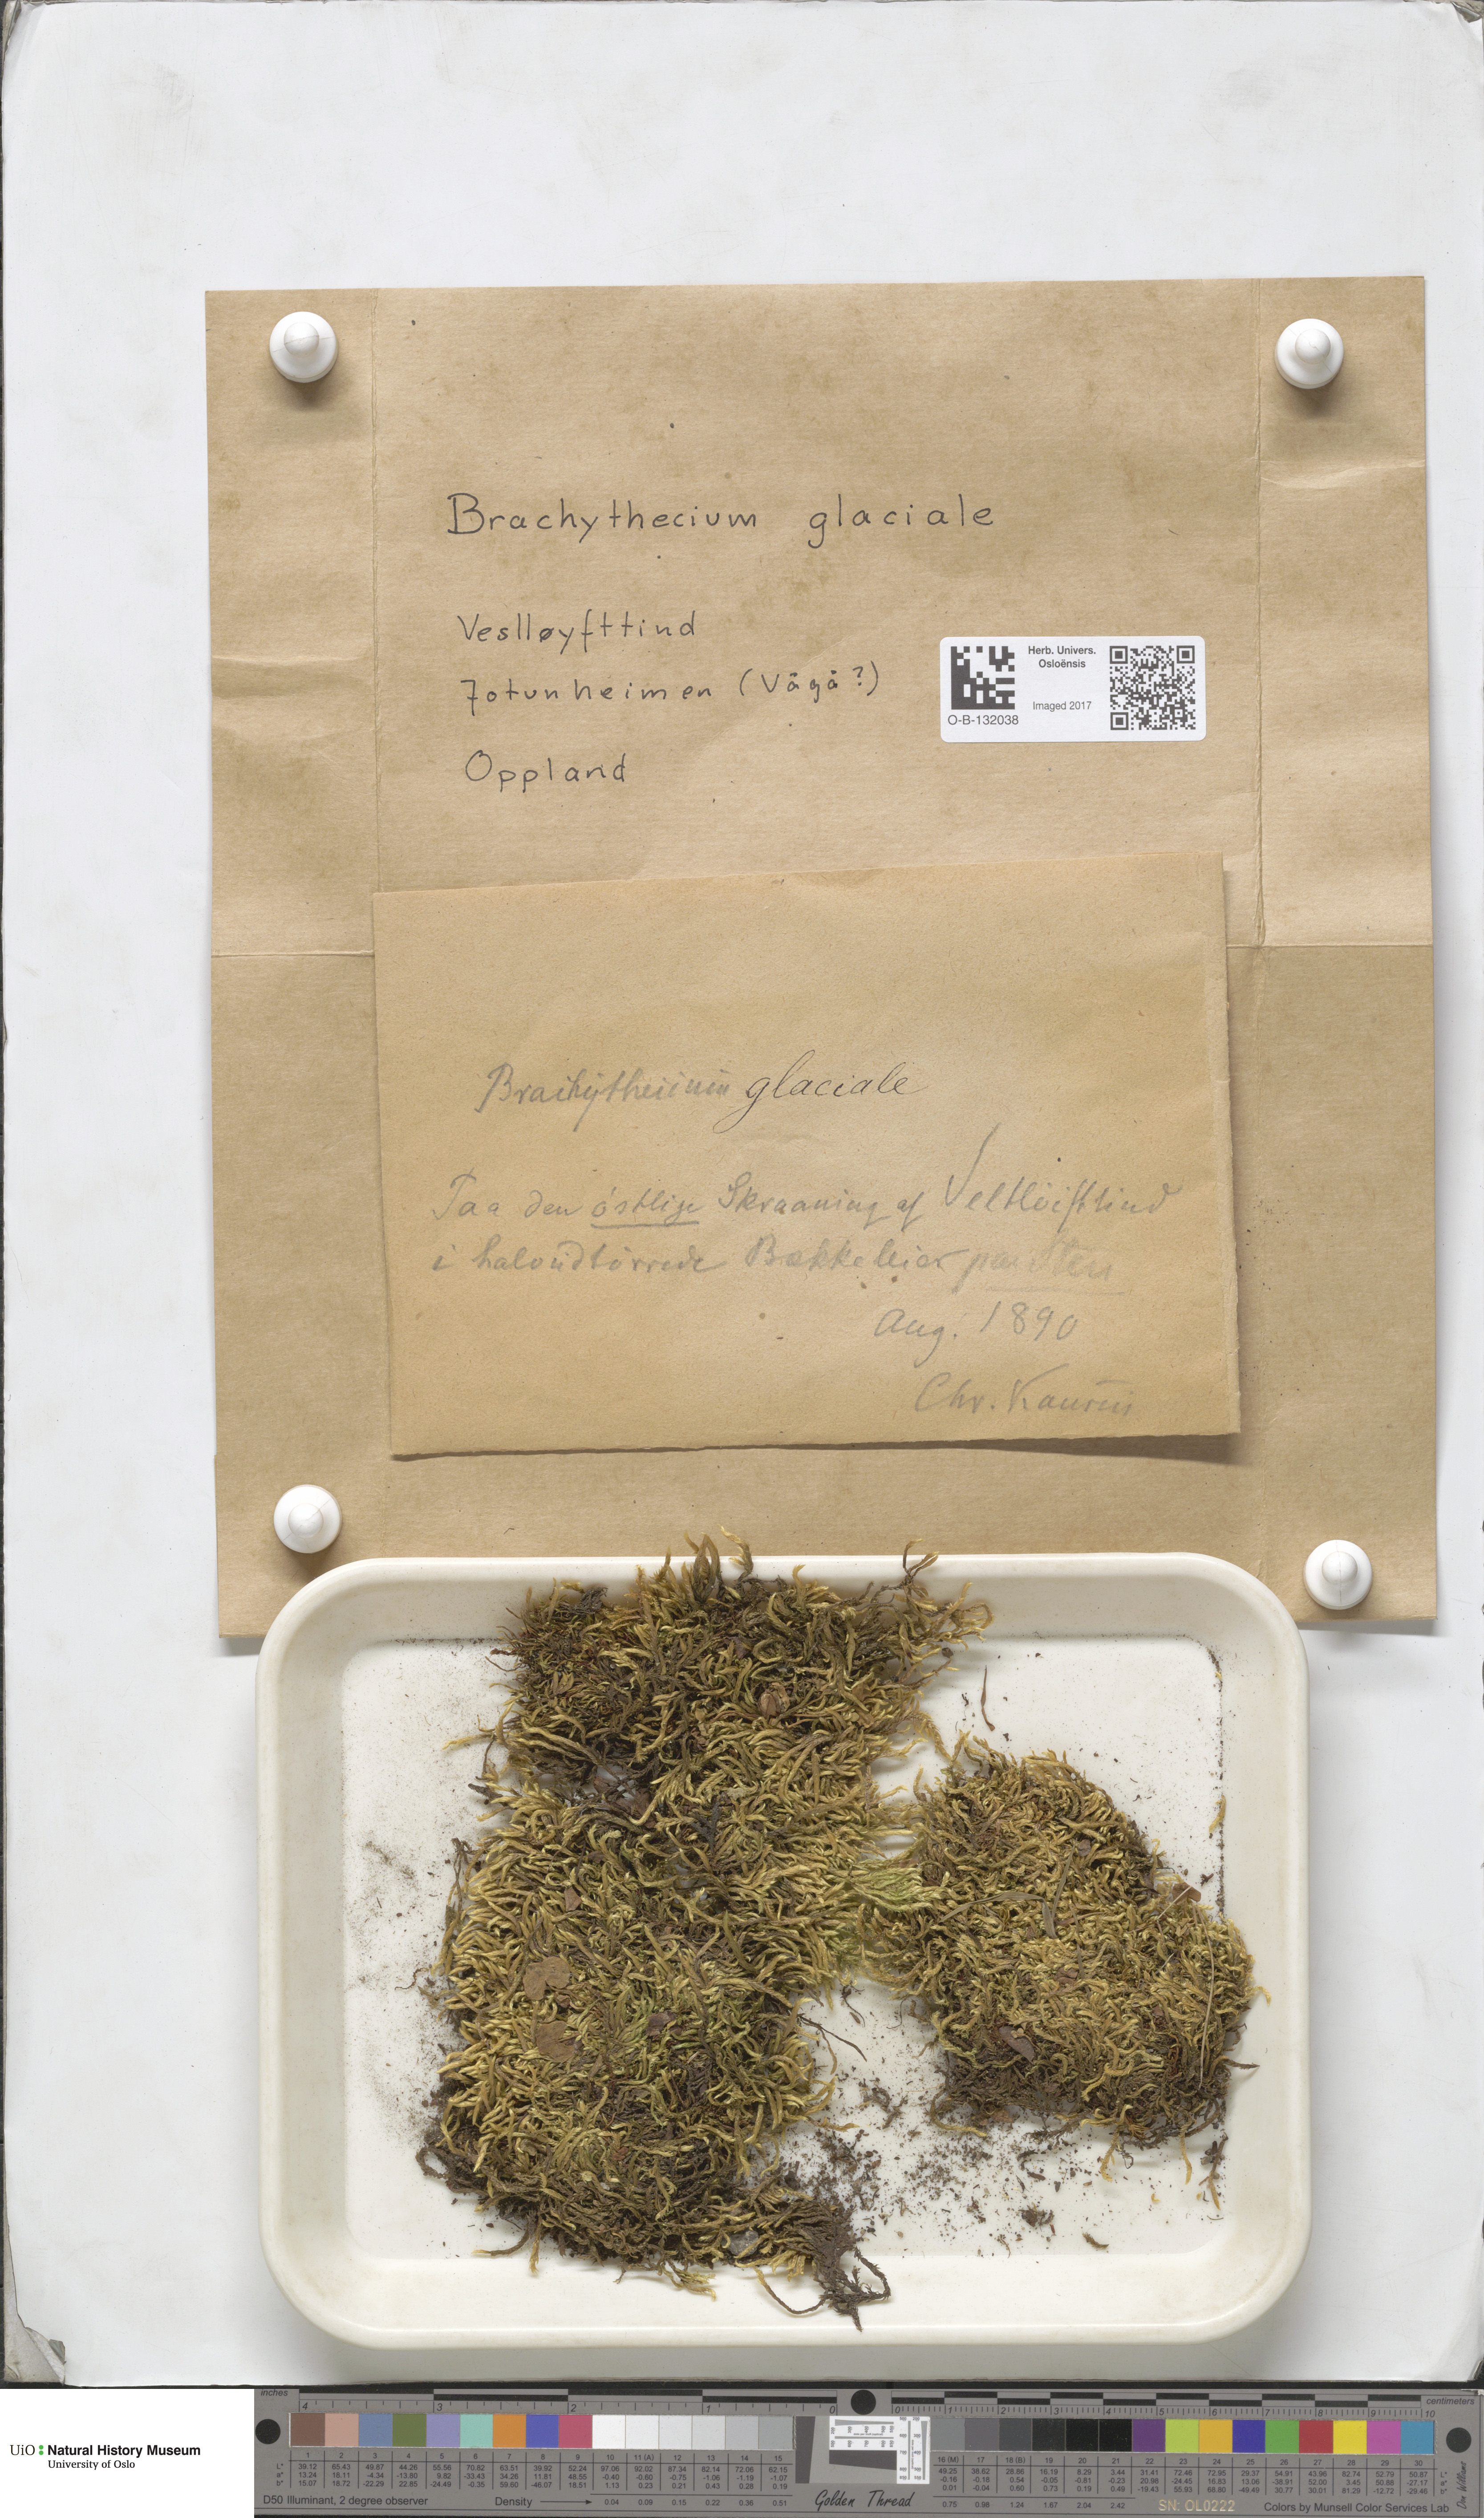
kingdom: Plantae
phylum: Bryophyta
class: Bryopsida
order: Hypnales
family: Brachytheciaceae
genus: Sciuro-hypnum
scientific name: Sciuro-hypnum glaciale
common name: Snow feather-moss
